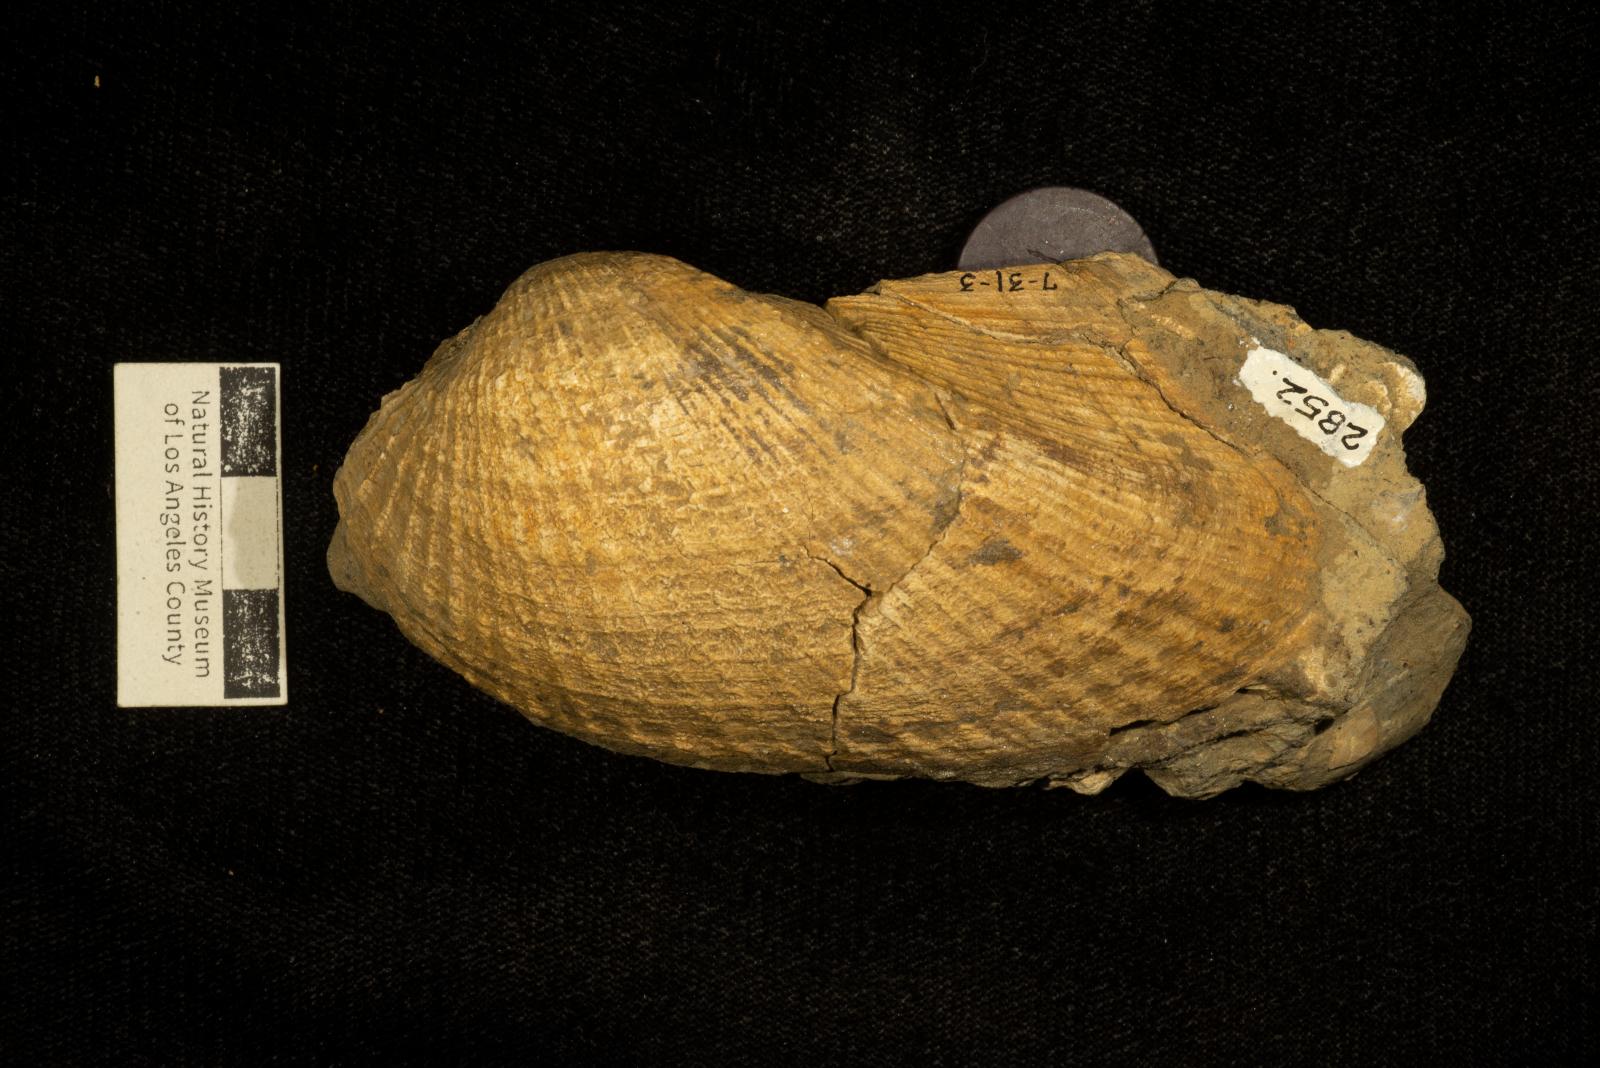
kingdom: Animalia
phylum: Mollusca
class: Bivalvia
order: Arcida
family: Arcidae
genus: Indogrammatodon
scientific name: Indogrammatodon
